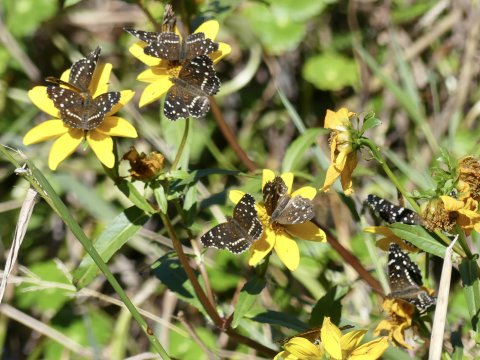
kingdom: Animalia
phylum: Arthropoda
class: Insecta
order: Lepidoptera
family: Nymphalidae
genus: Anthanassa
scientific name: Anthanassa texana
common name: Texan Crescent
